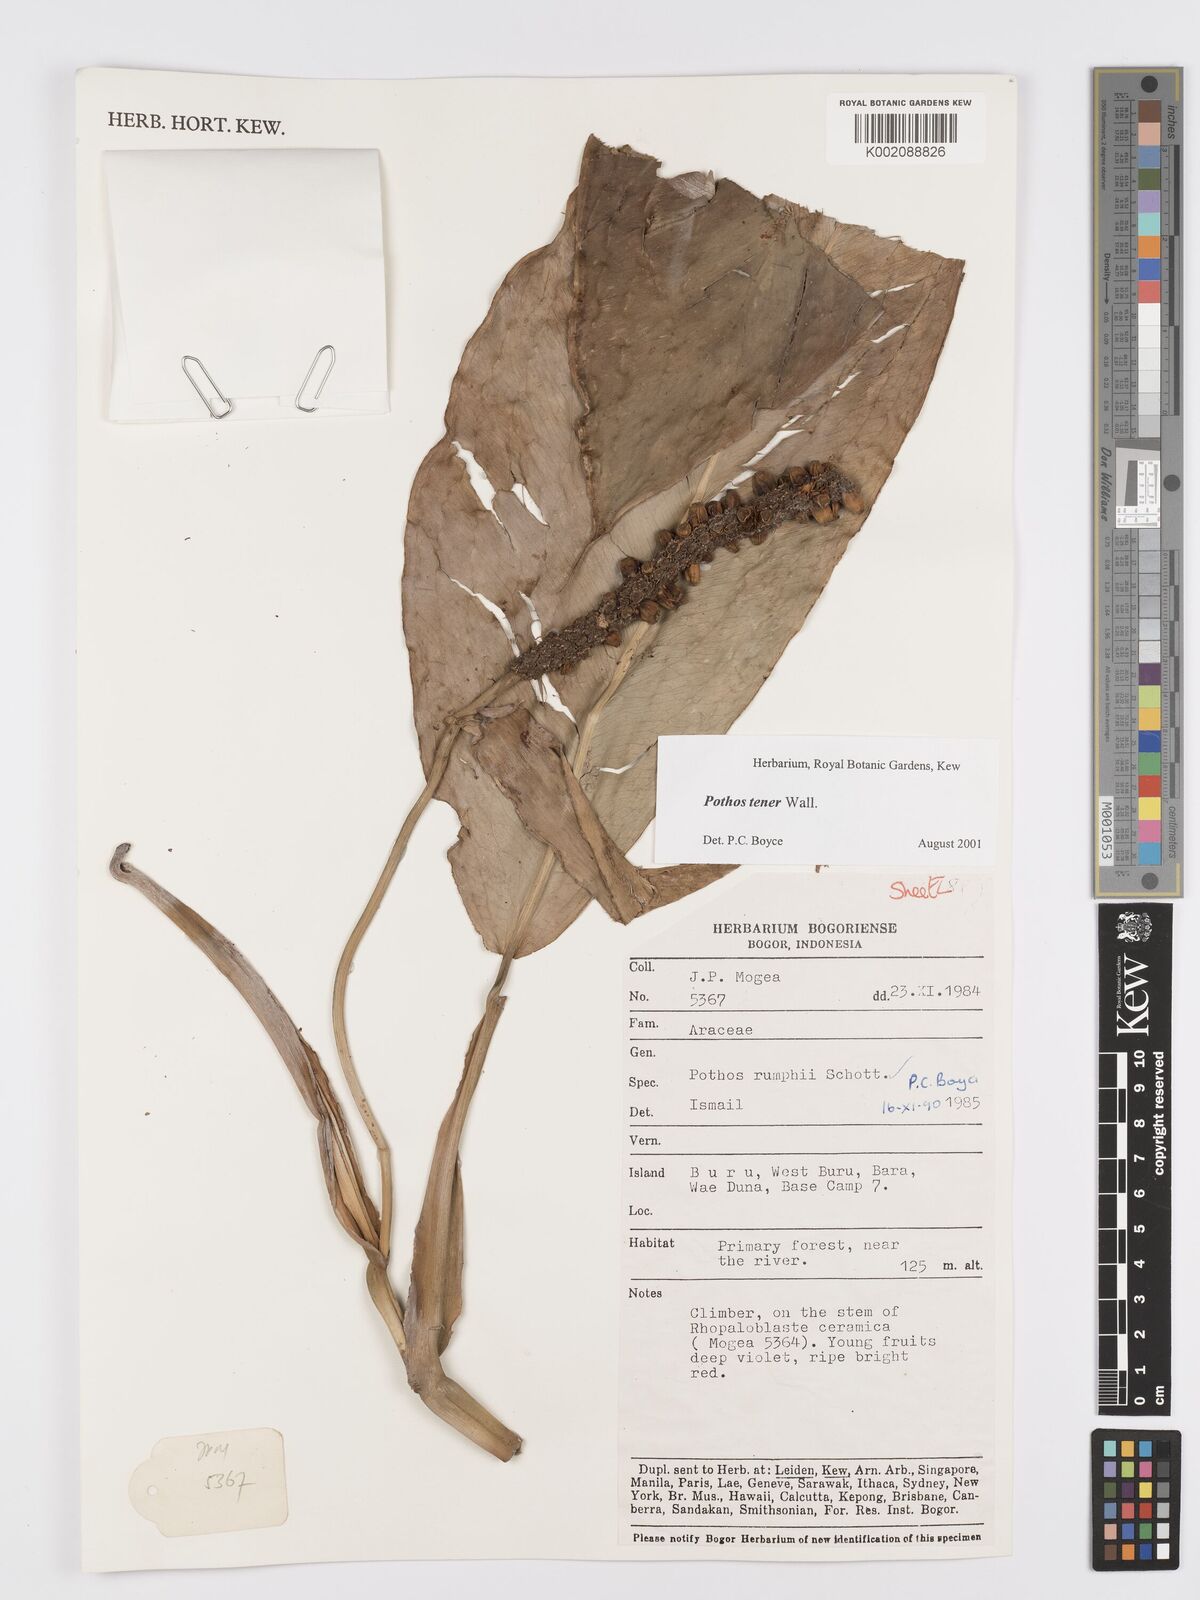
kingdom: Plantae
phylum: Tracheophyta
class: Liliopsida
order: Alismatales
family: Araceae
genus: Pothos
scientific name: Pothos tener
